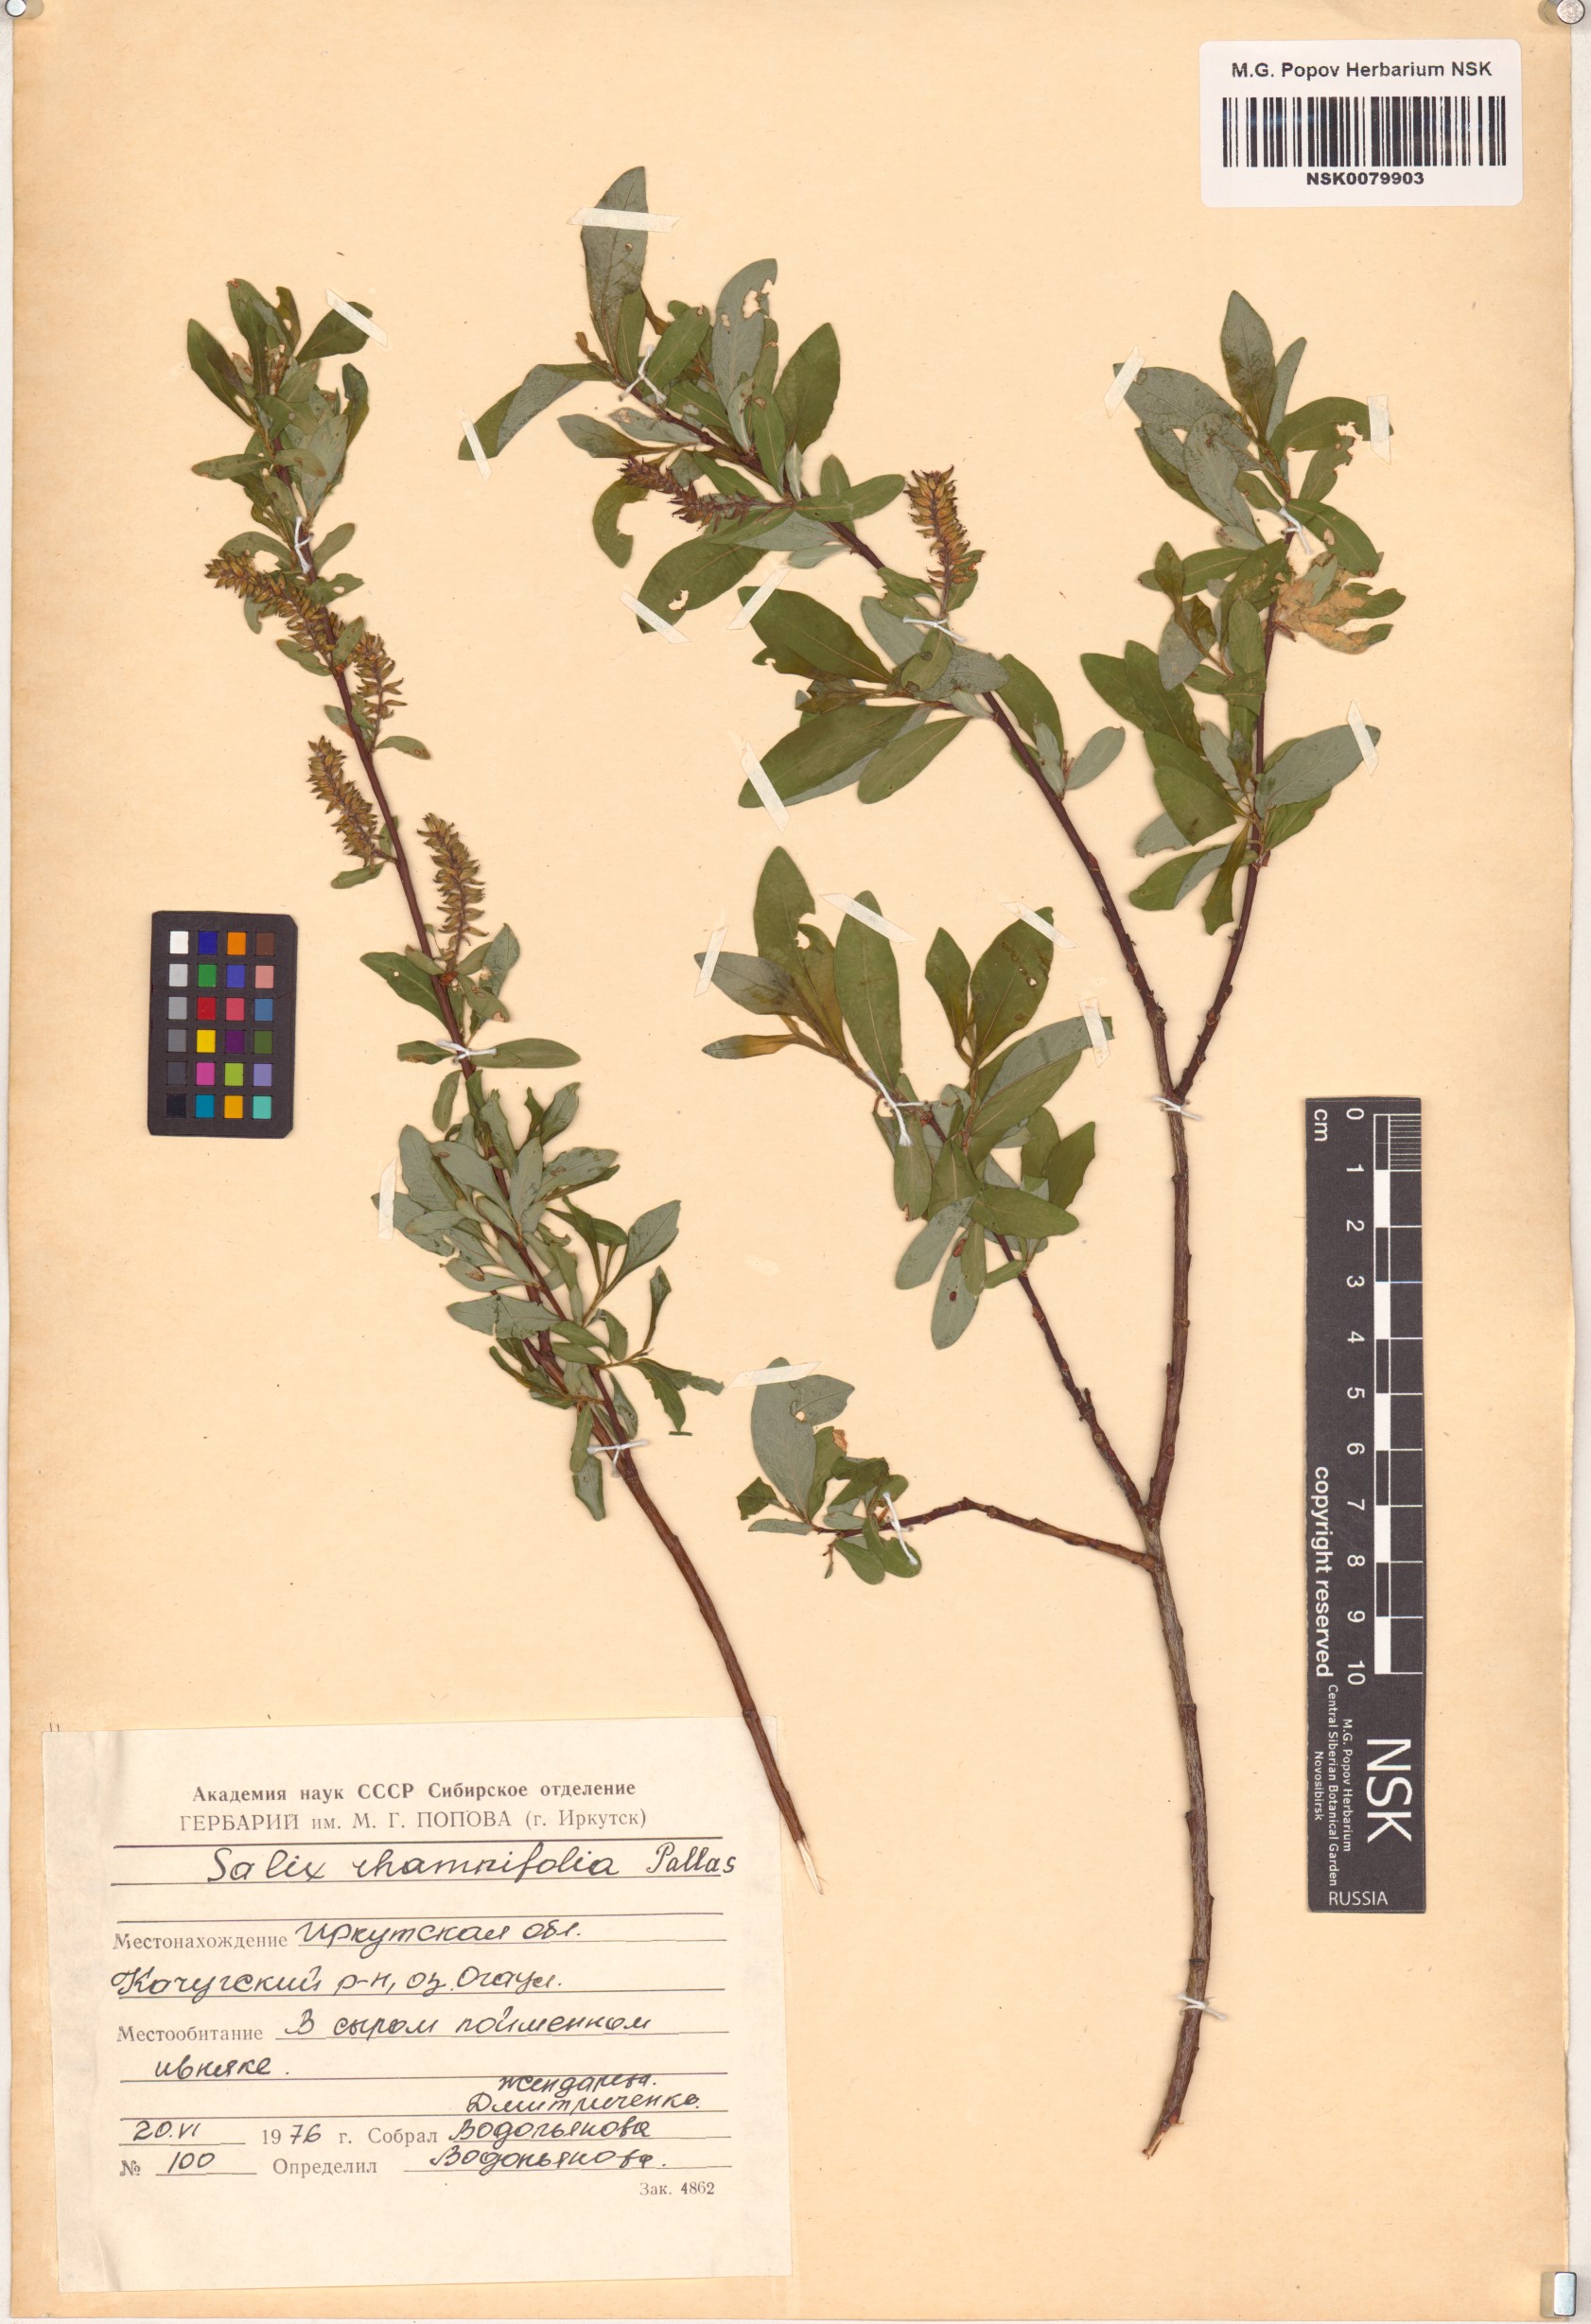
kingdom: Plantae
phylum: Tracheophyta
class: Magnoliopsida
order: Malpighiales
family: Salicaceae
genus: Salix
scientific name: Salix rhamnifolia
